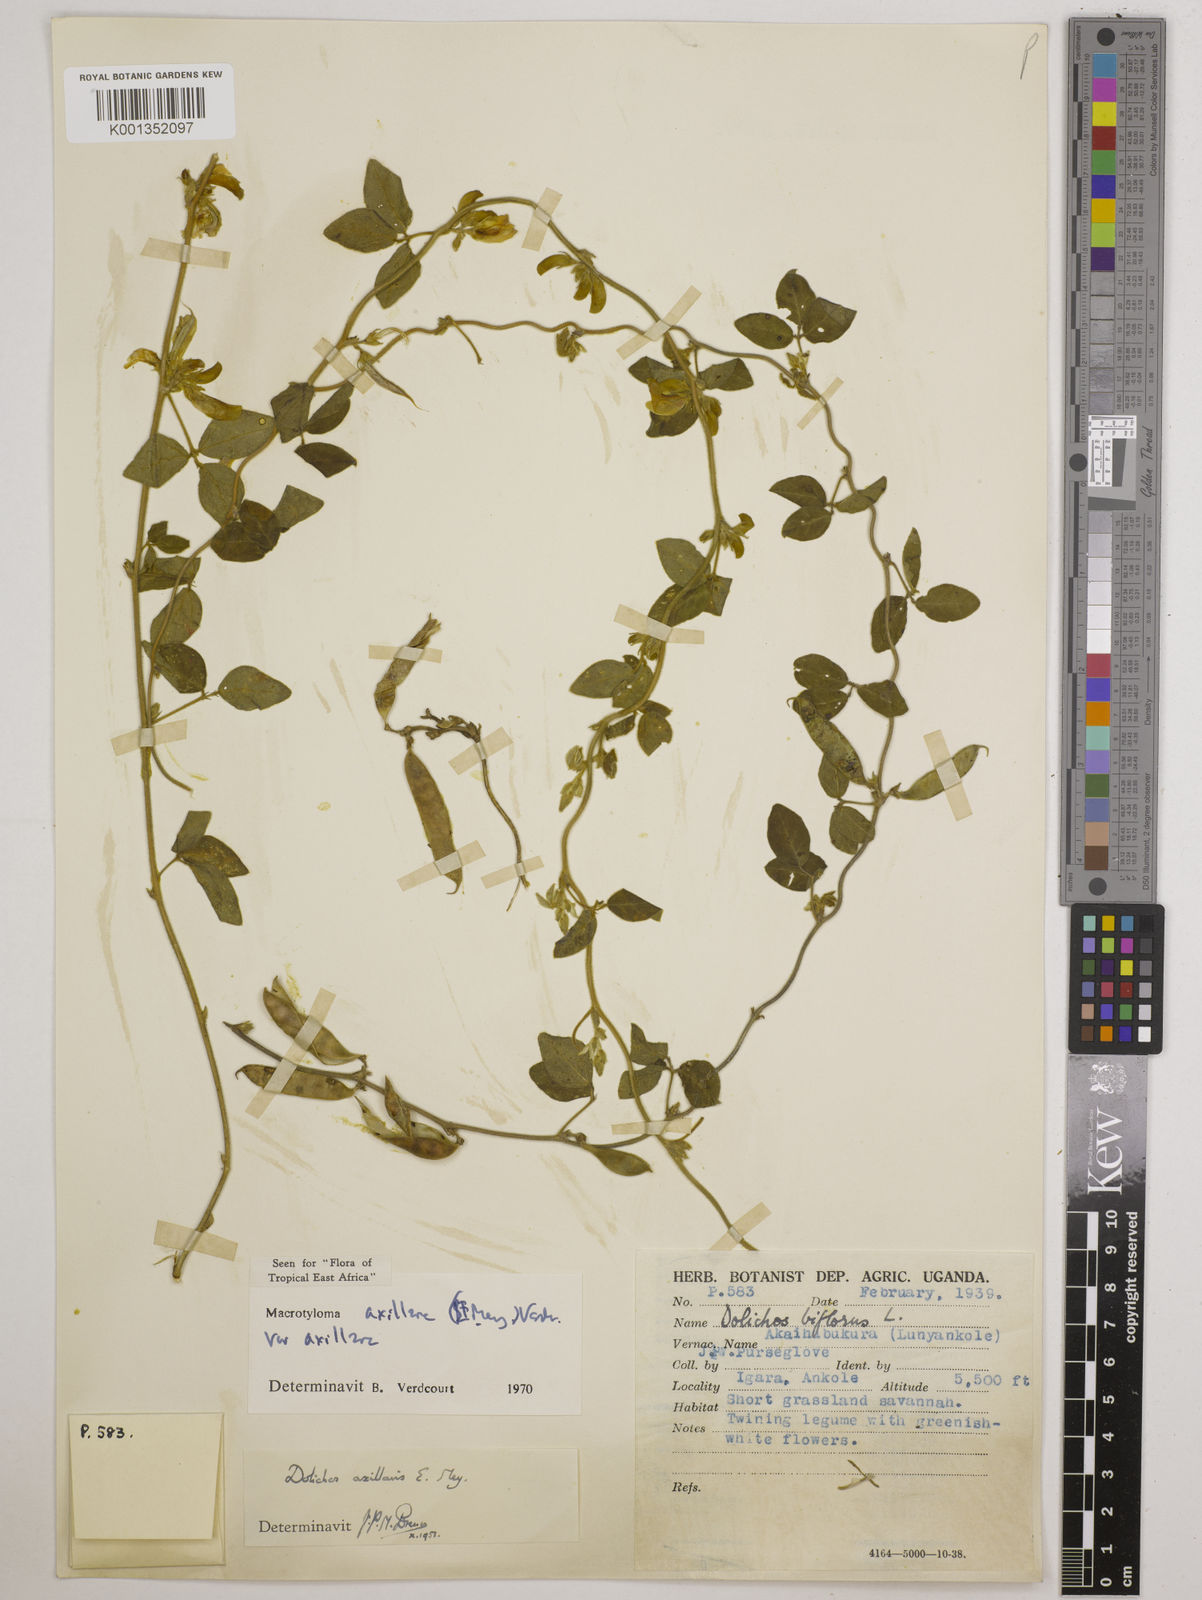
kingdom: Plantae
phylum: Tracheophyta
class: Magnoliopsida
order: Fabales
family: Fabaceae
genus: Macrotyloma
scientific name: Macrotyloma axillare
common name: Perennial horsegram
